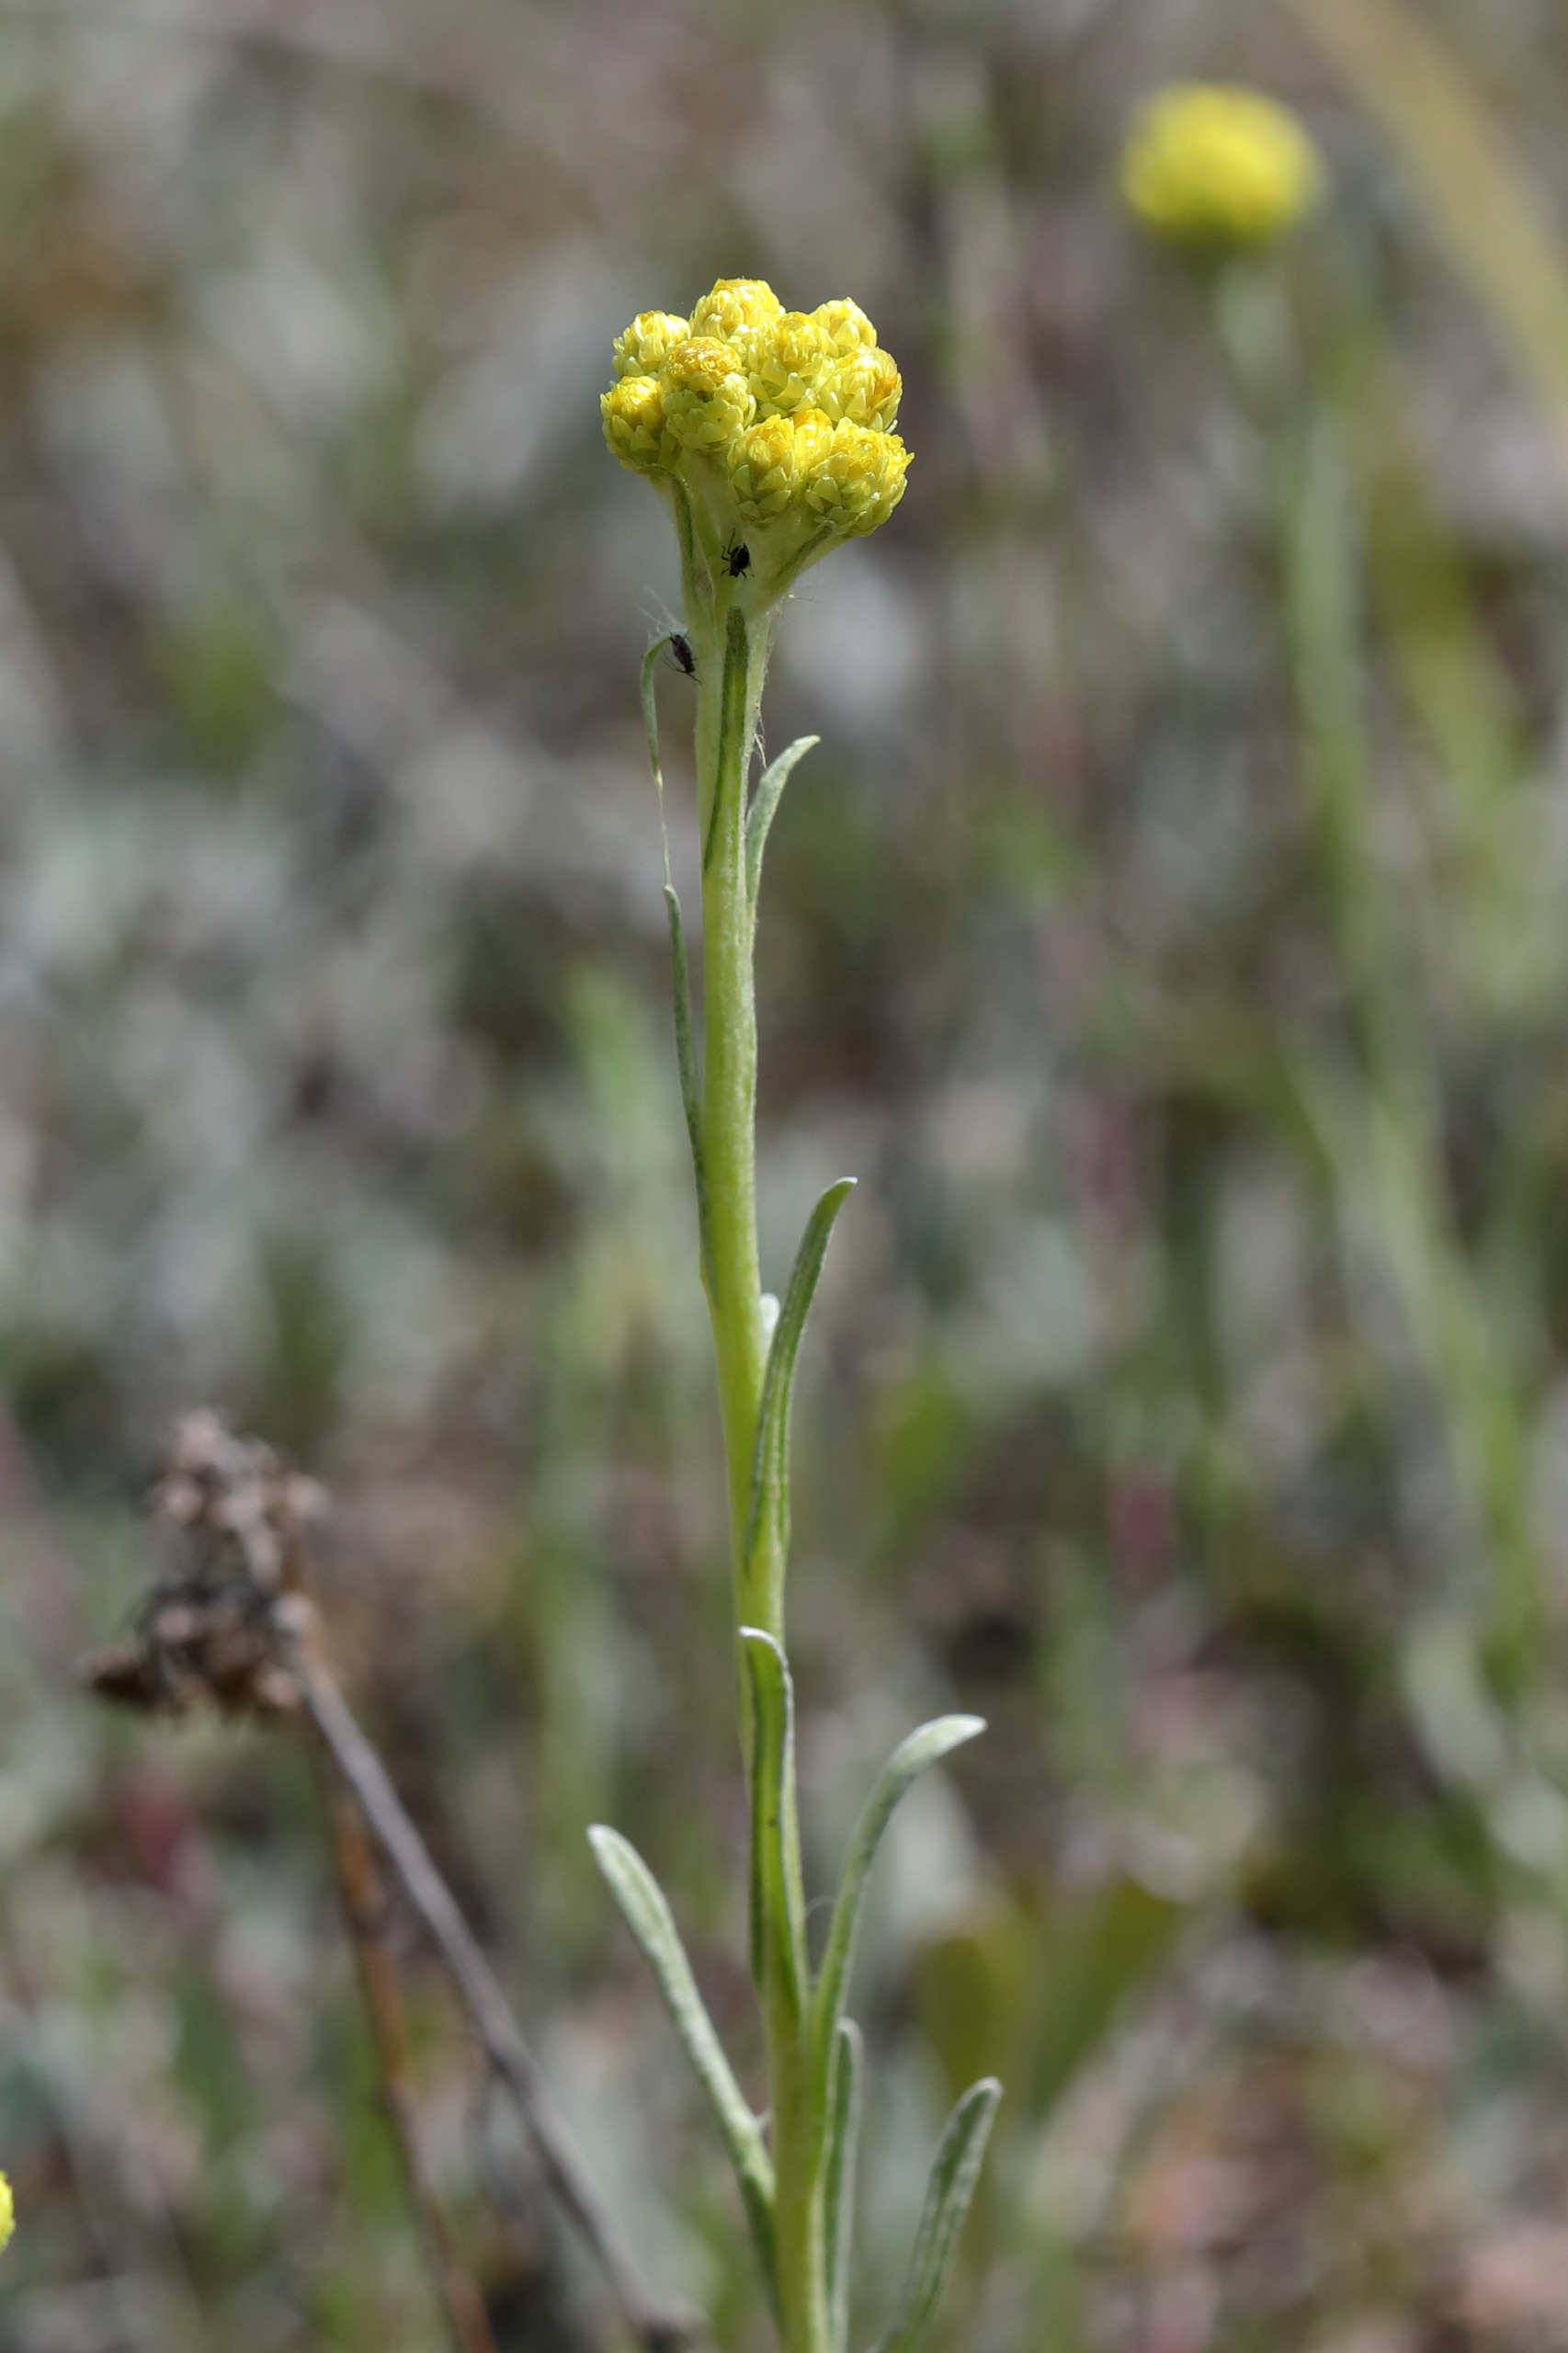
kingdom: Plantae
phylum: Tracheophyta
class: Magnoliopsida
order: Asterales
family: Asteraceae
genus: Helichrysum
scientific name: Helichrysum arenarium
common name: Gul evighedsblomst
